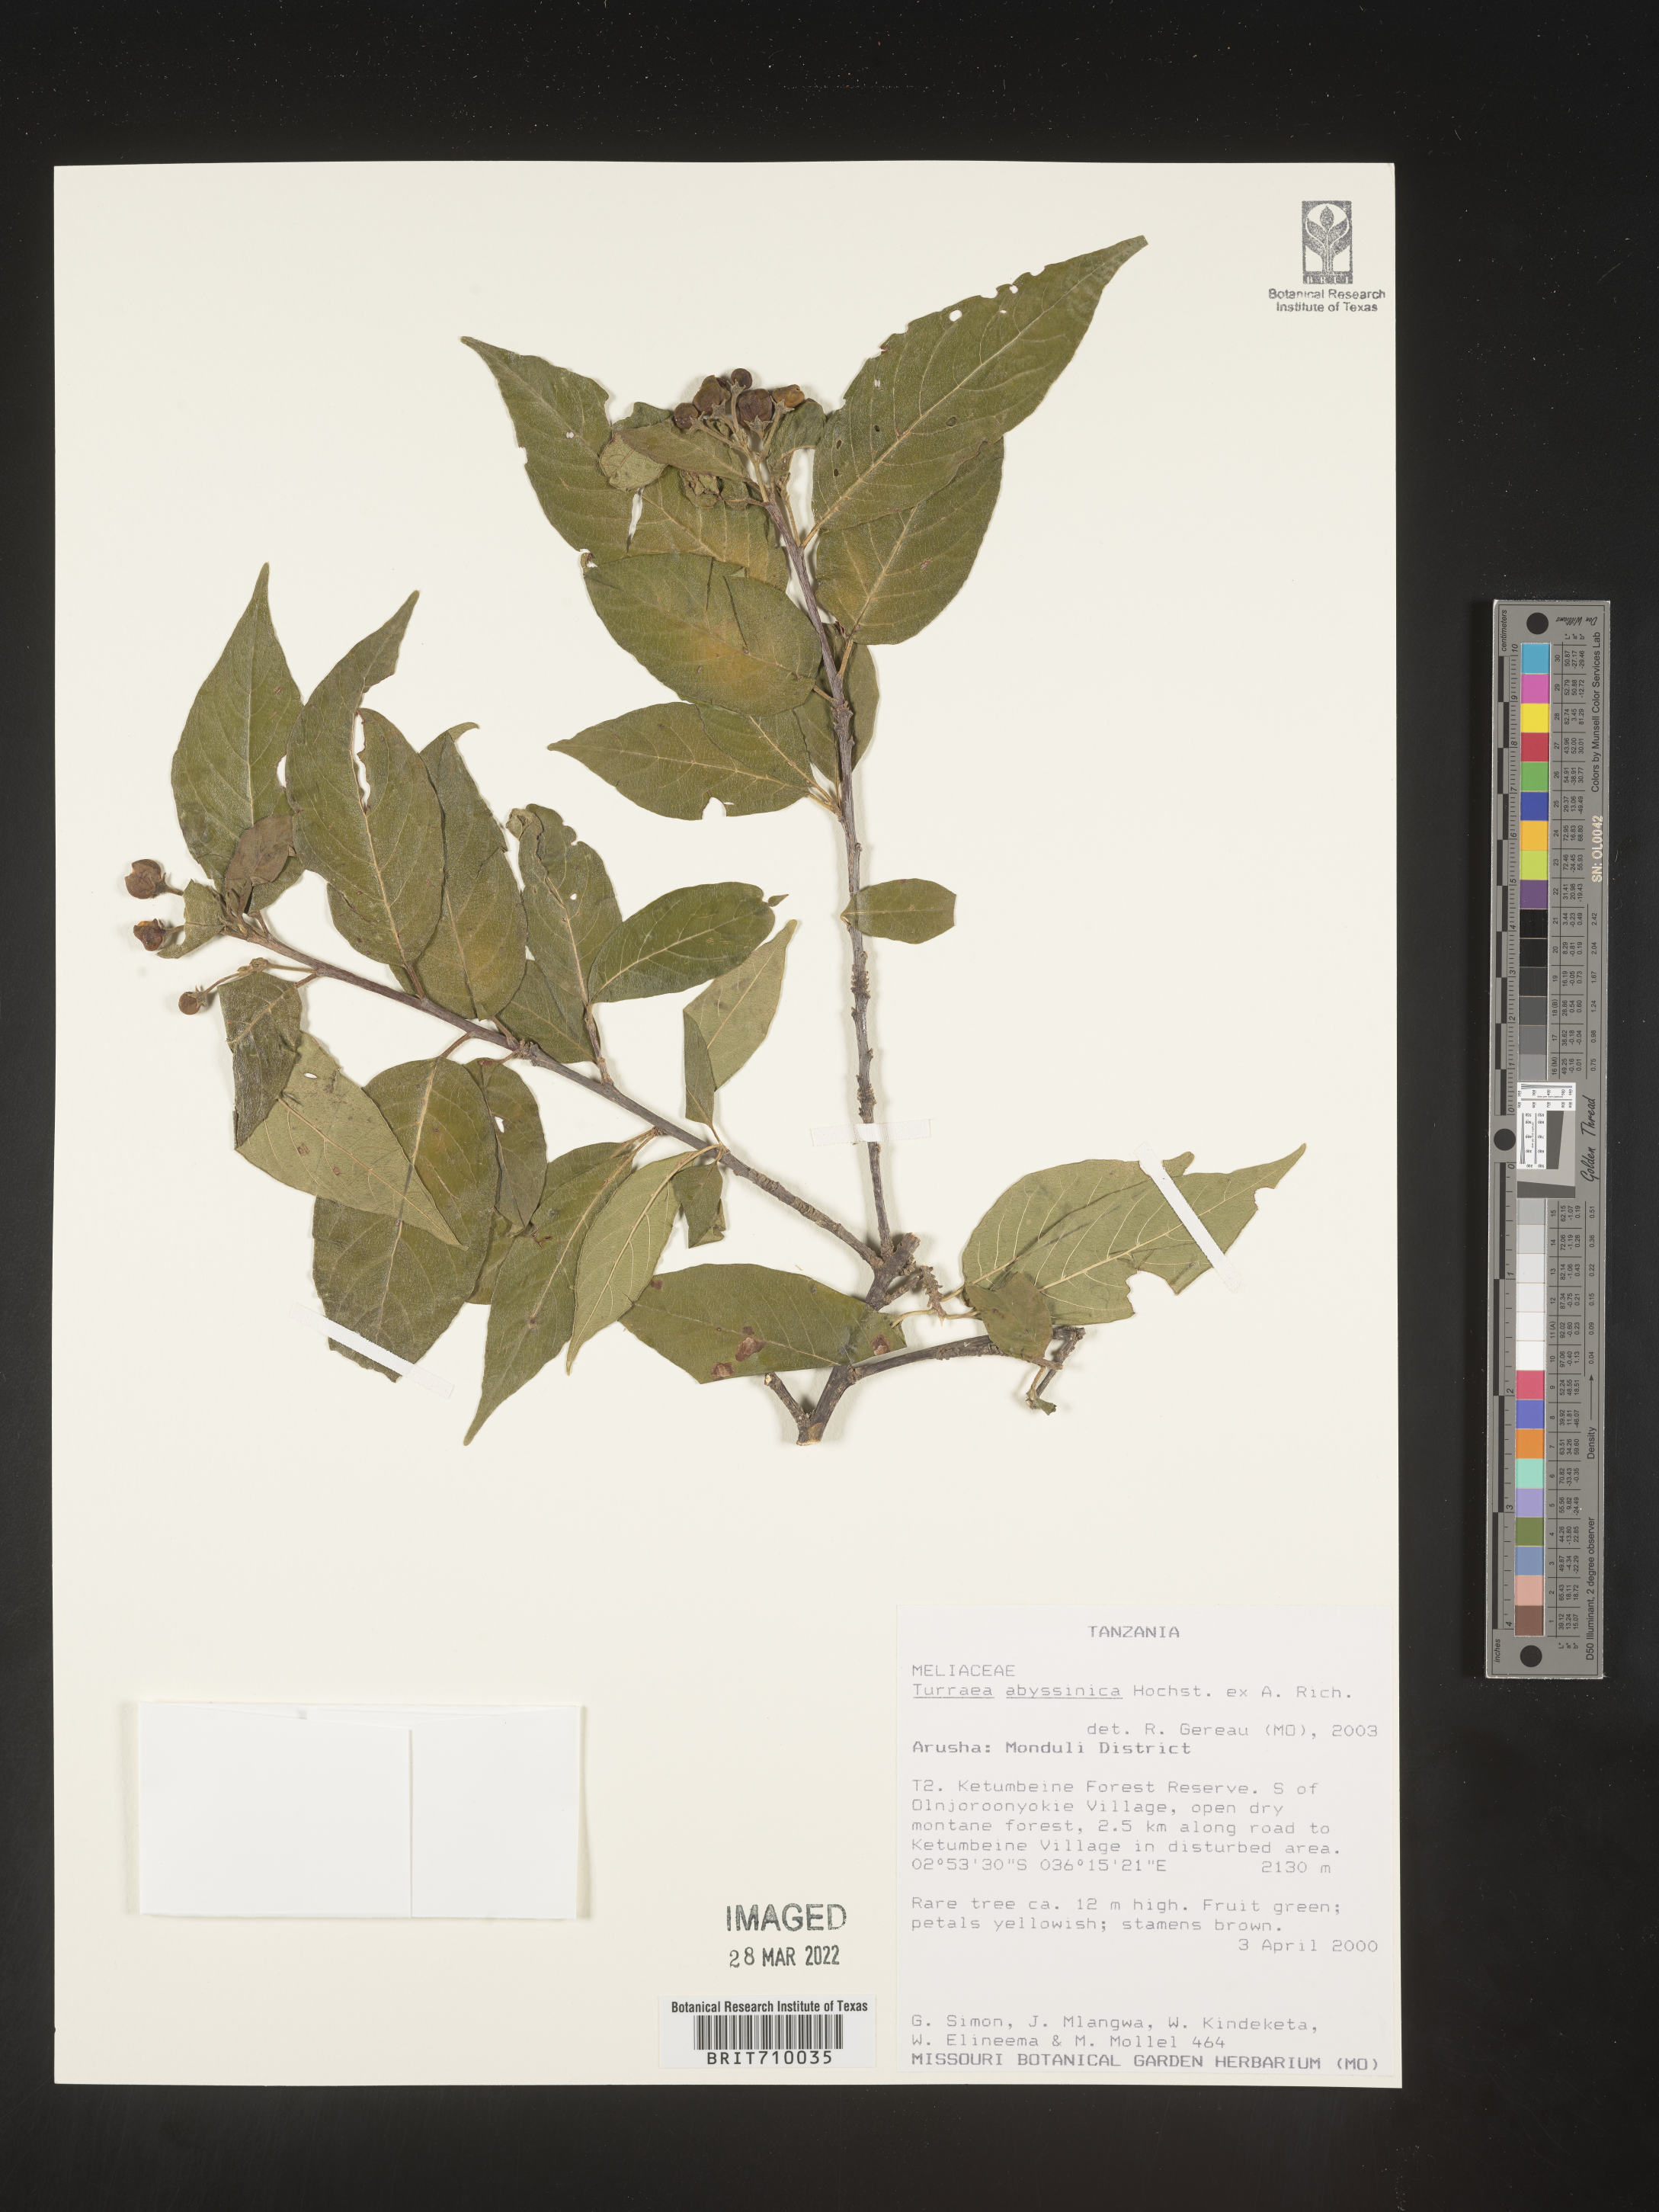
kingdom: Plantae
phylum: Tracheophyta
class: Magnoliopsida
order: Sapindales
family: Meliaceae
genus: Turraea
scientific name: Turraea
